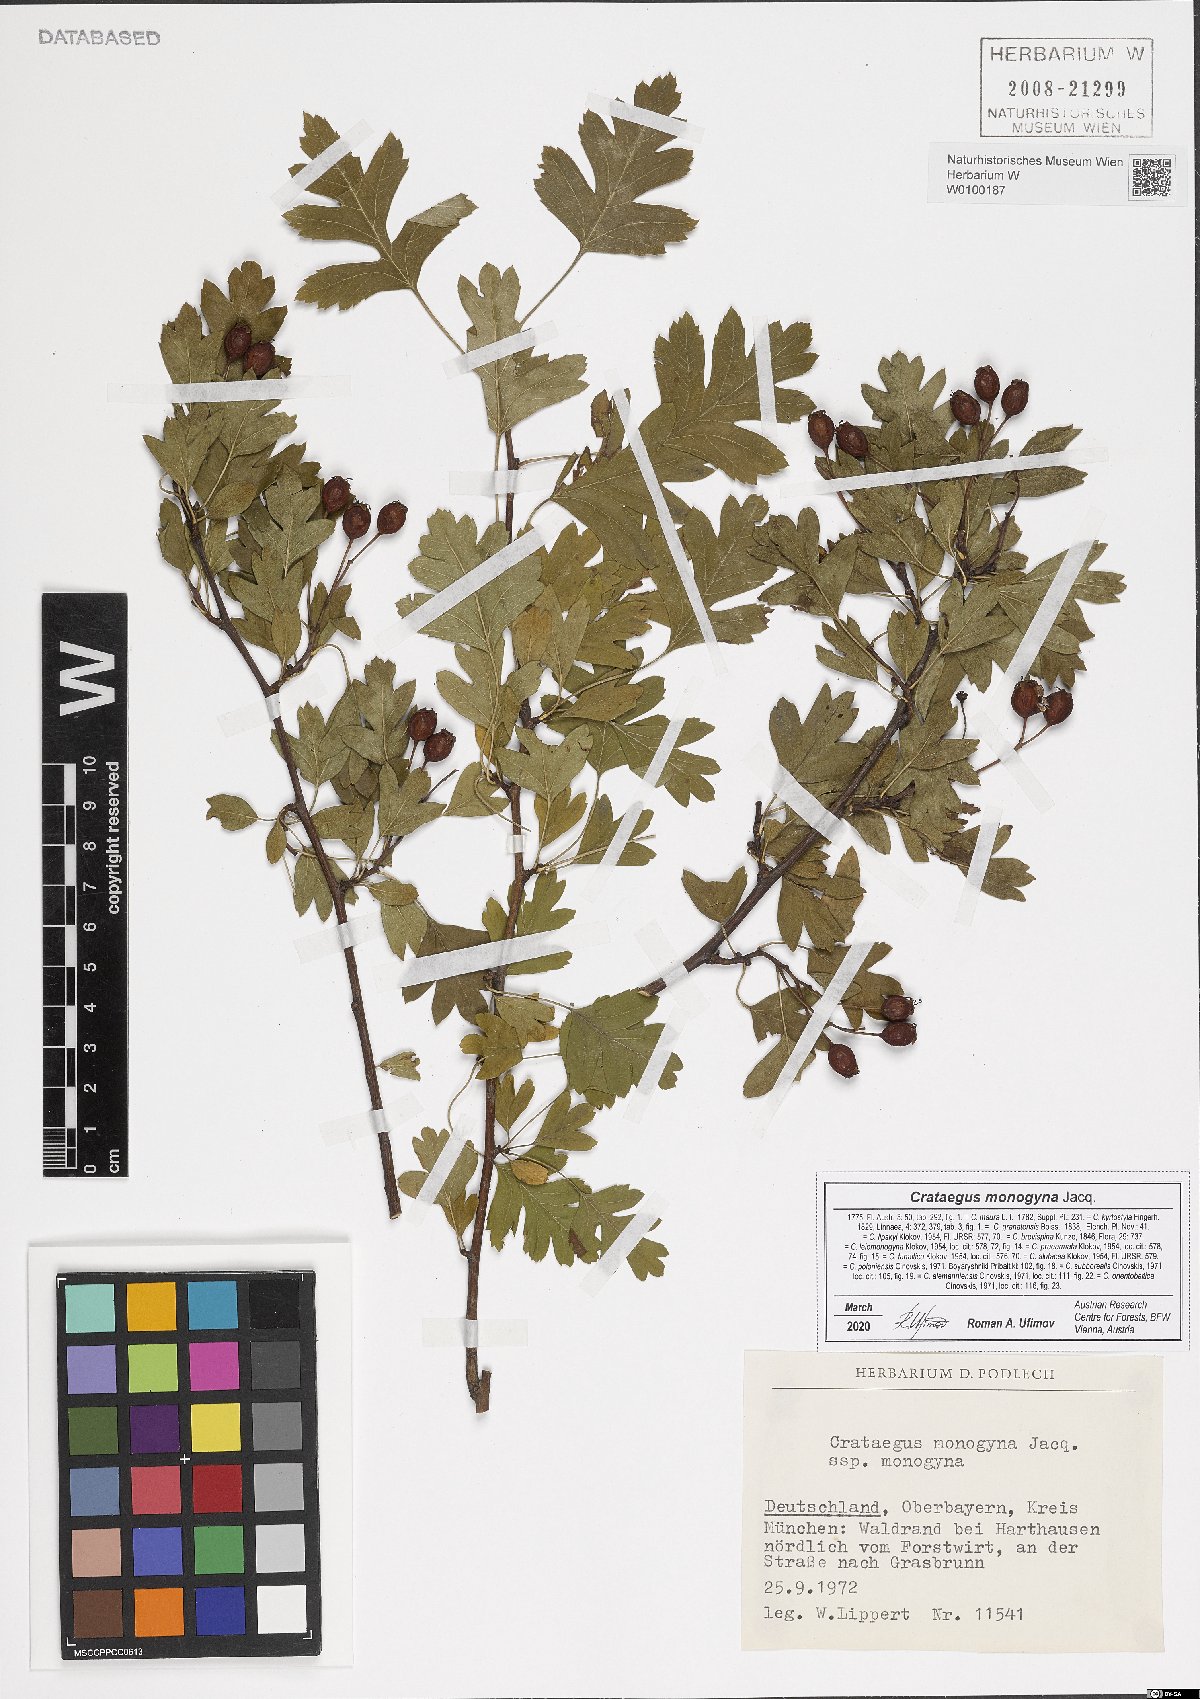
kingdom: Plantae
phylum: Tracheophyta
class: Magnoliopsida
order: Rosales
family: Rosaceae
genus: Crataegus
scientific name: Crataegus monogyna
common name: Hawthorn
